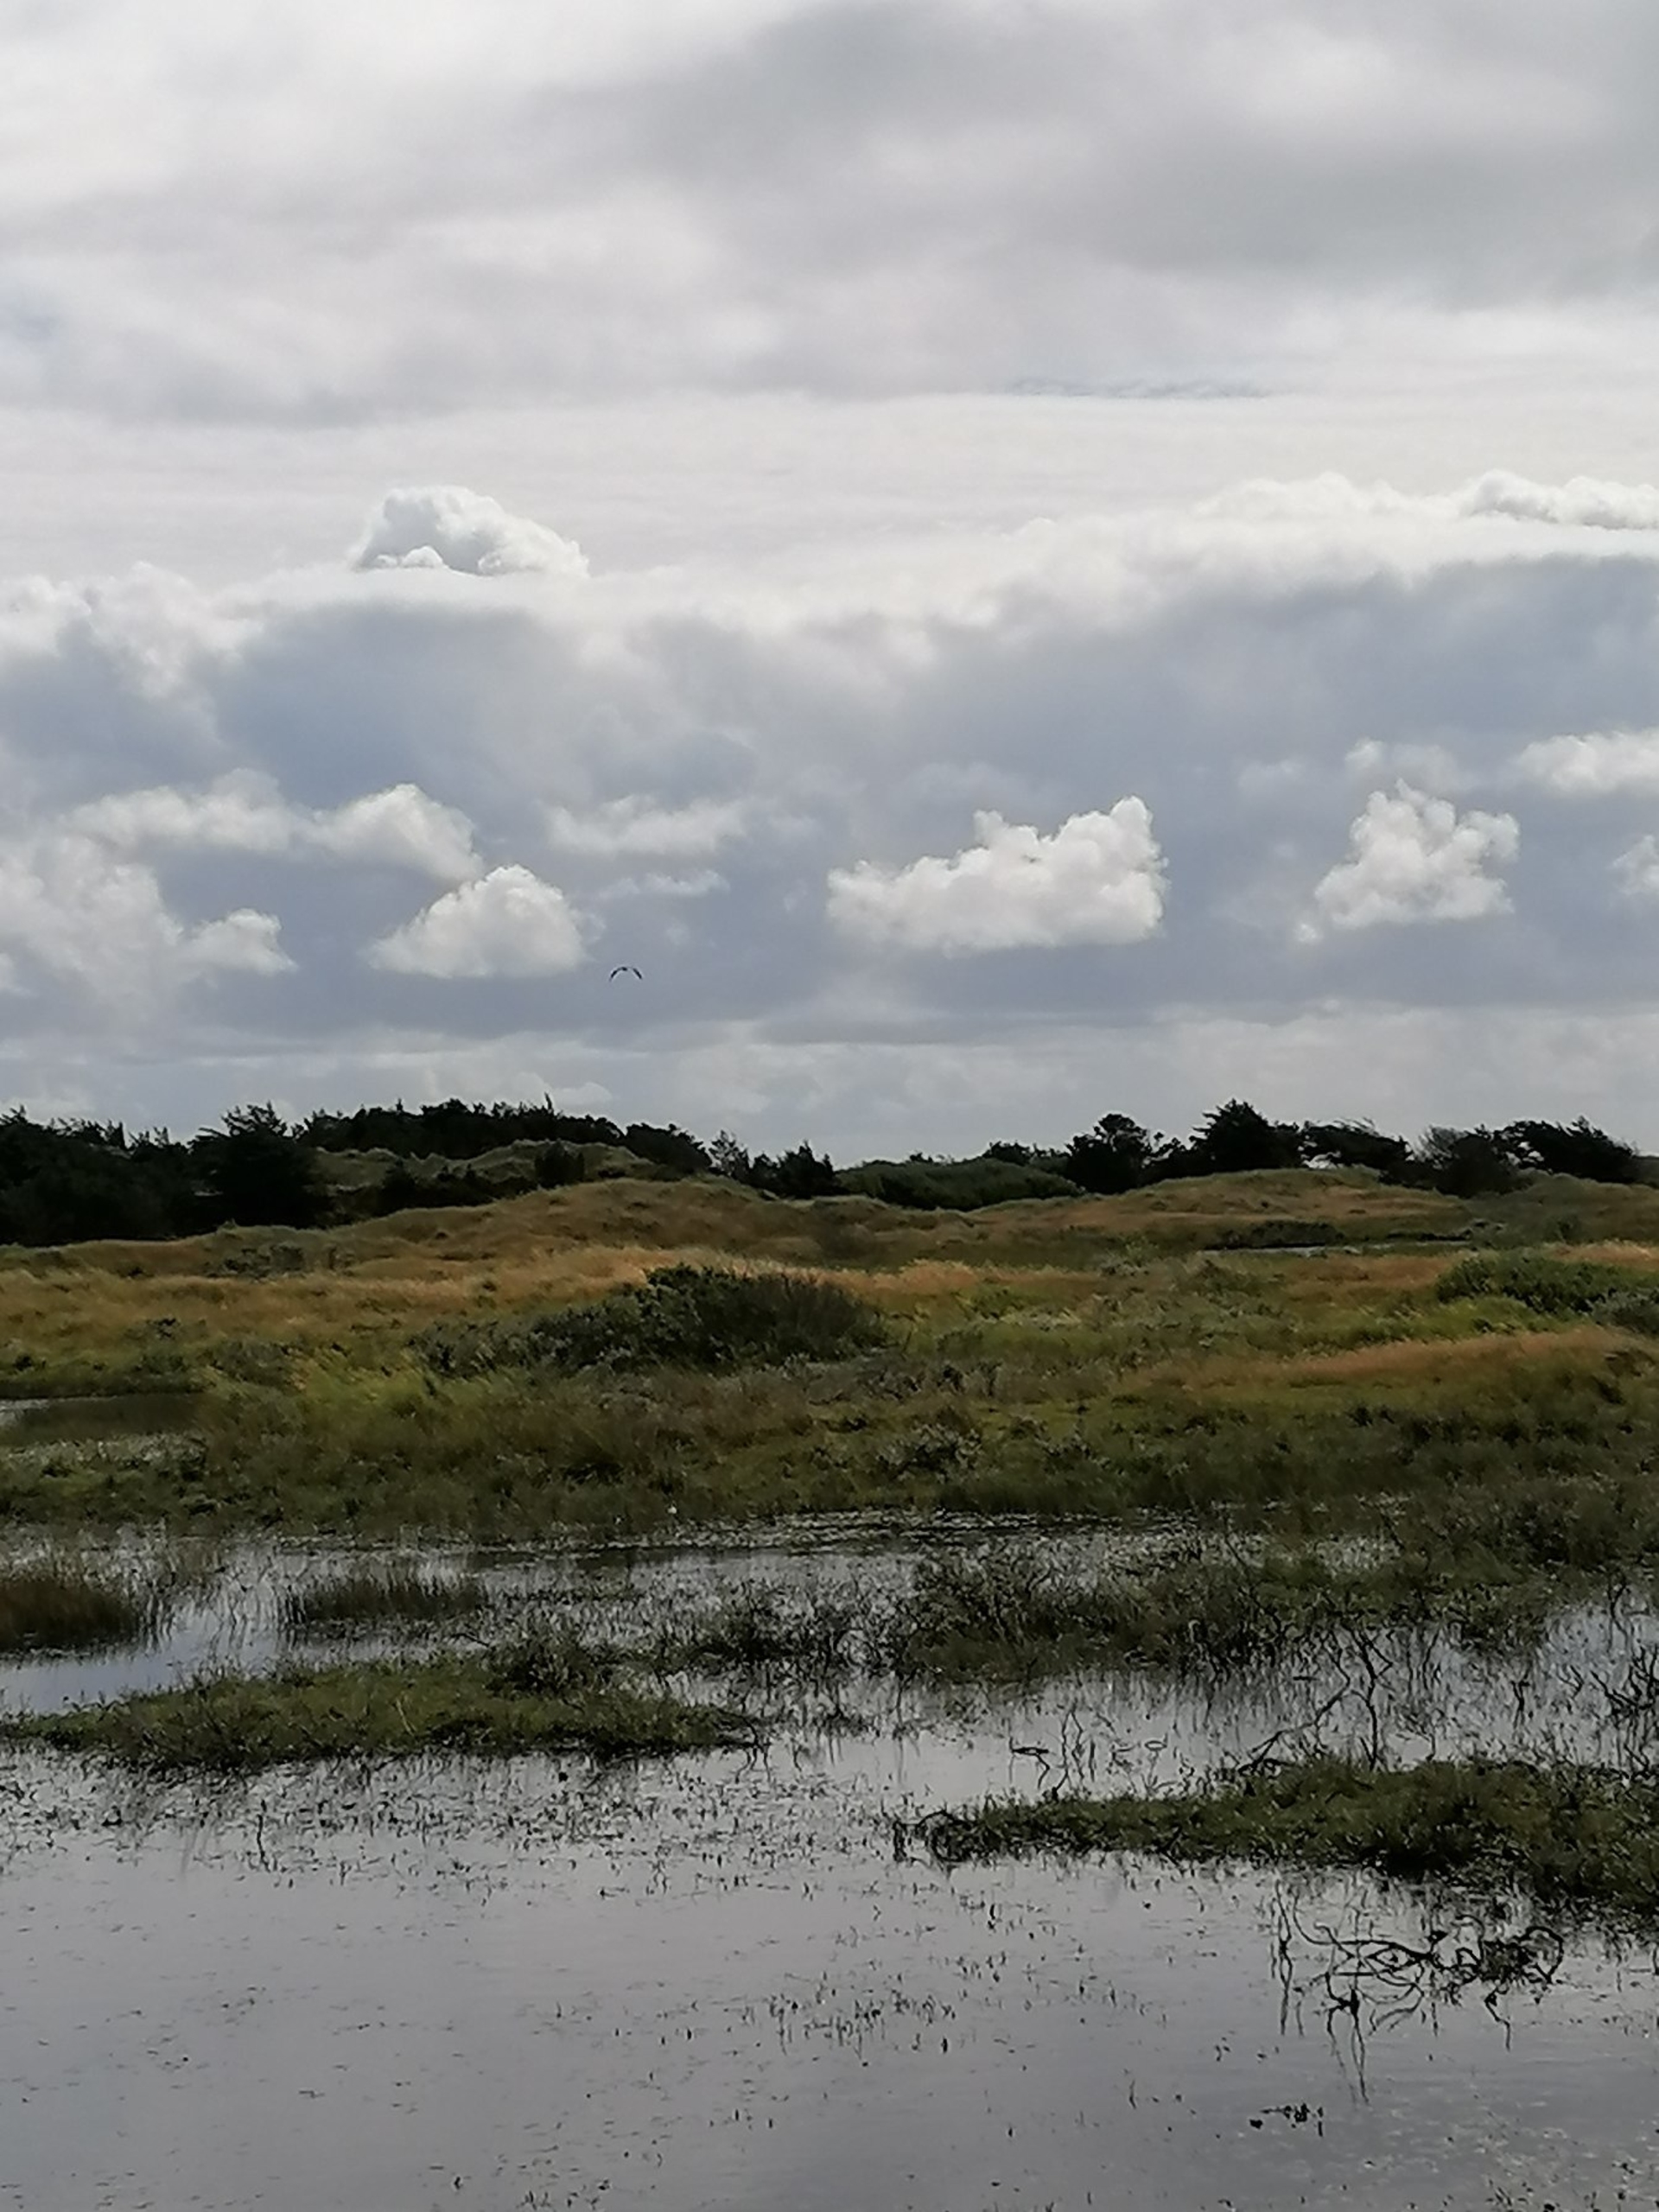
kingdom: Animalia
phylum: Chordata
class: Aves
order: Pelecaniformes
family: Ardeidae
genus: Ardea
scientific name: Ardea cinerea
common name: Fiskehejre
